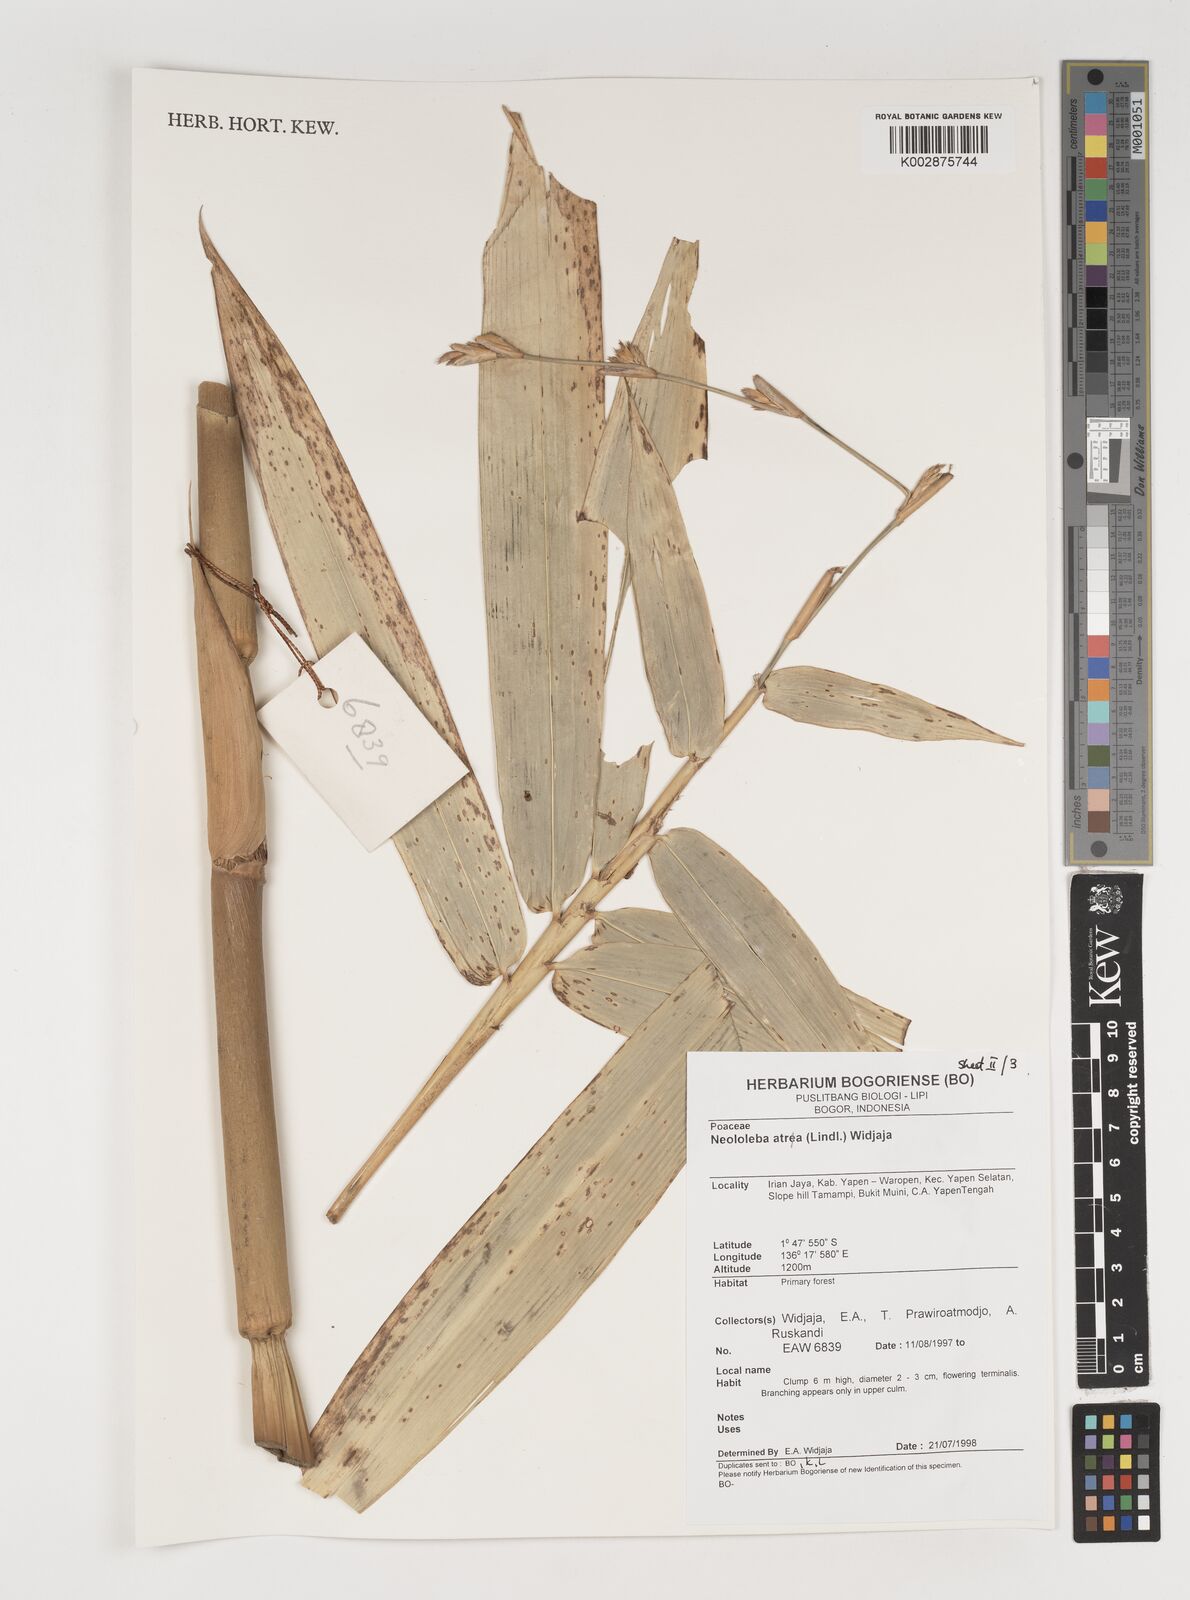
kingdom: Plantae
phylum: Tracheophyta
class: Liliopsida
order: Poales
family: Poaceae
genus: Neololeba
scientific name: Neololeba atra
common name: Cape bamboo
